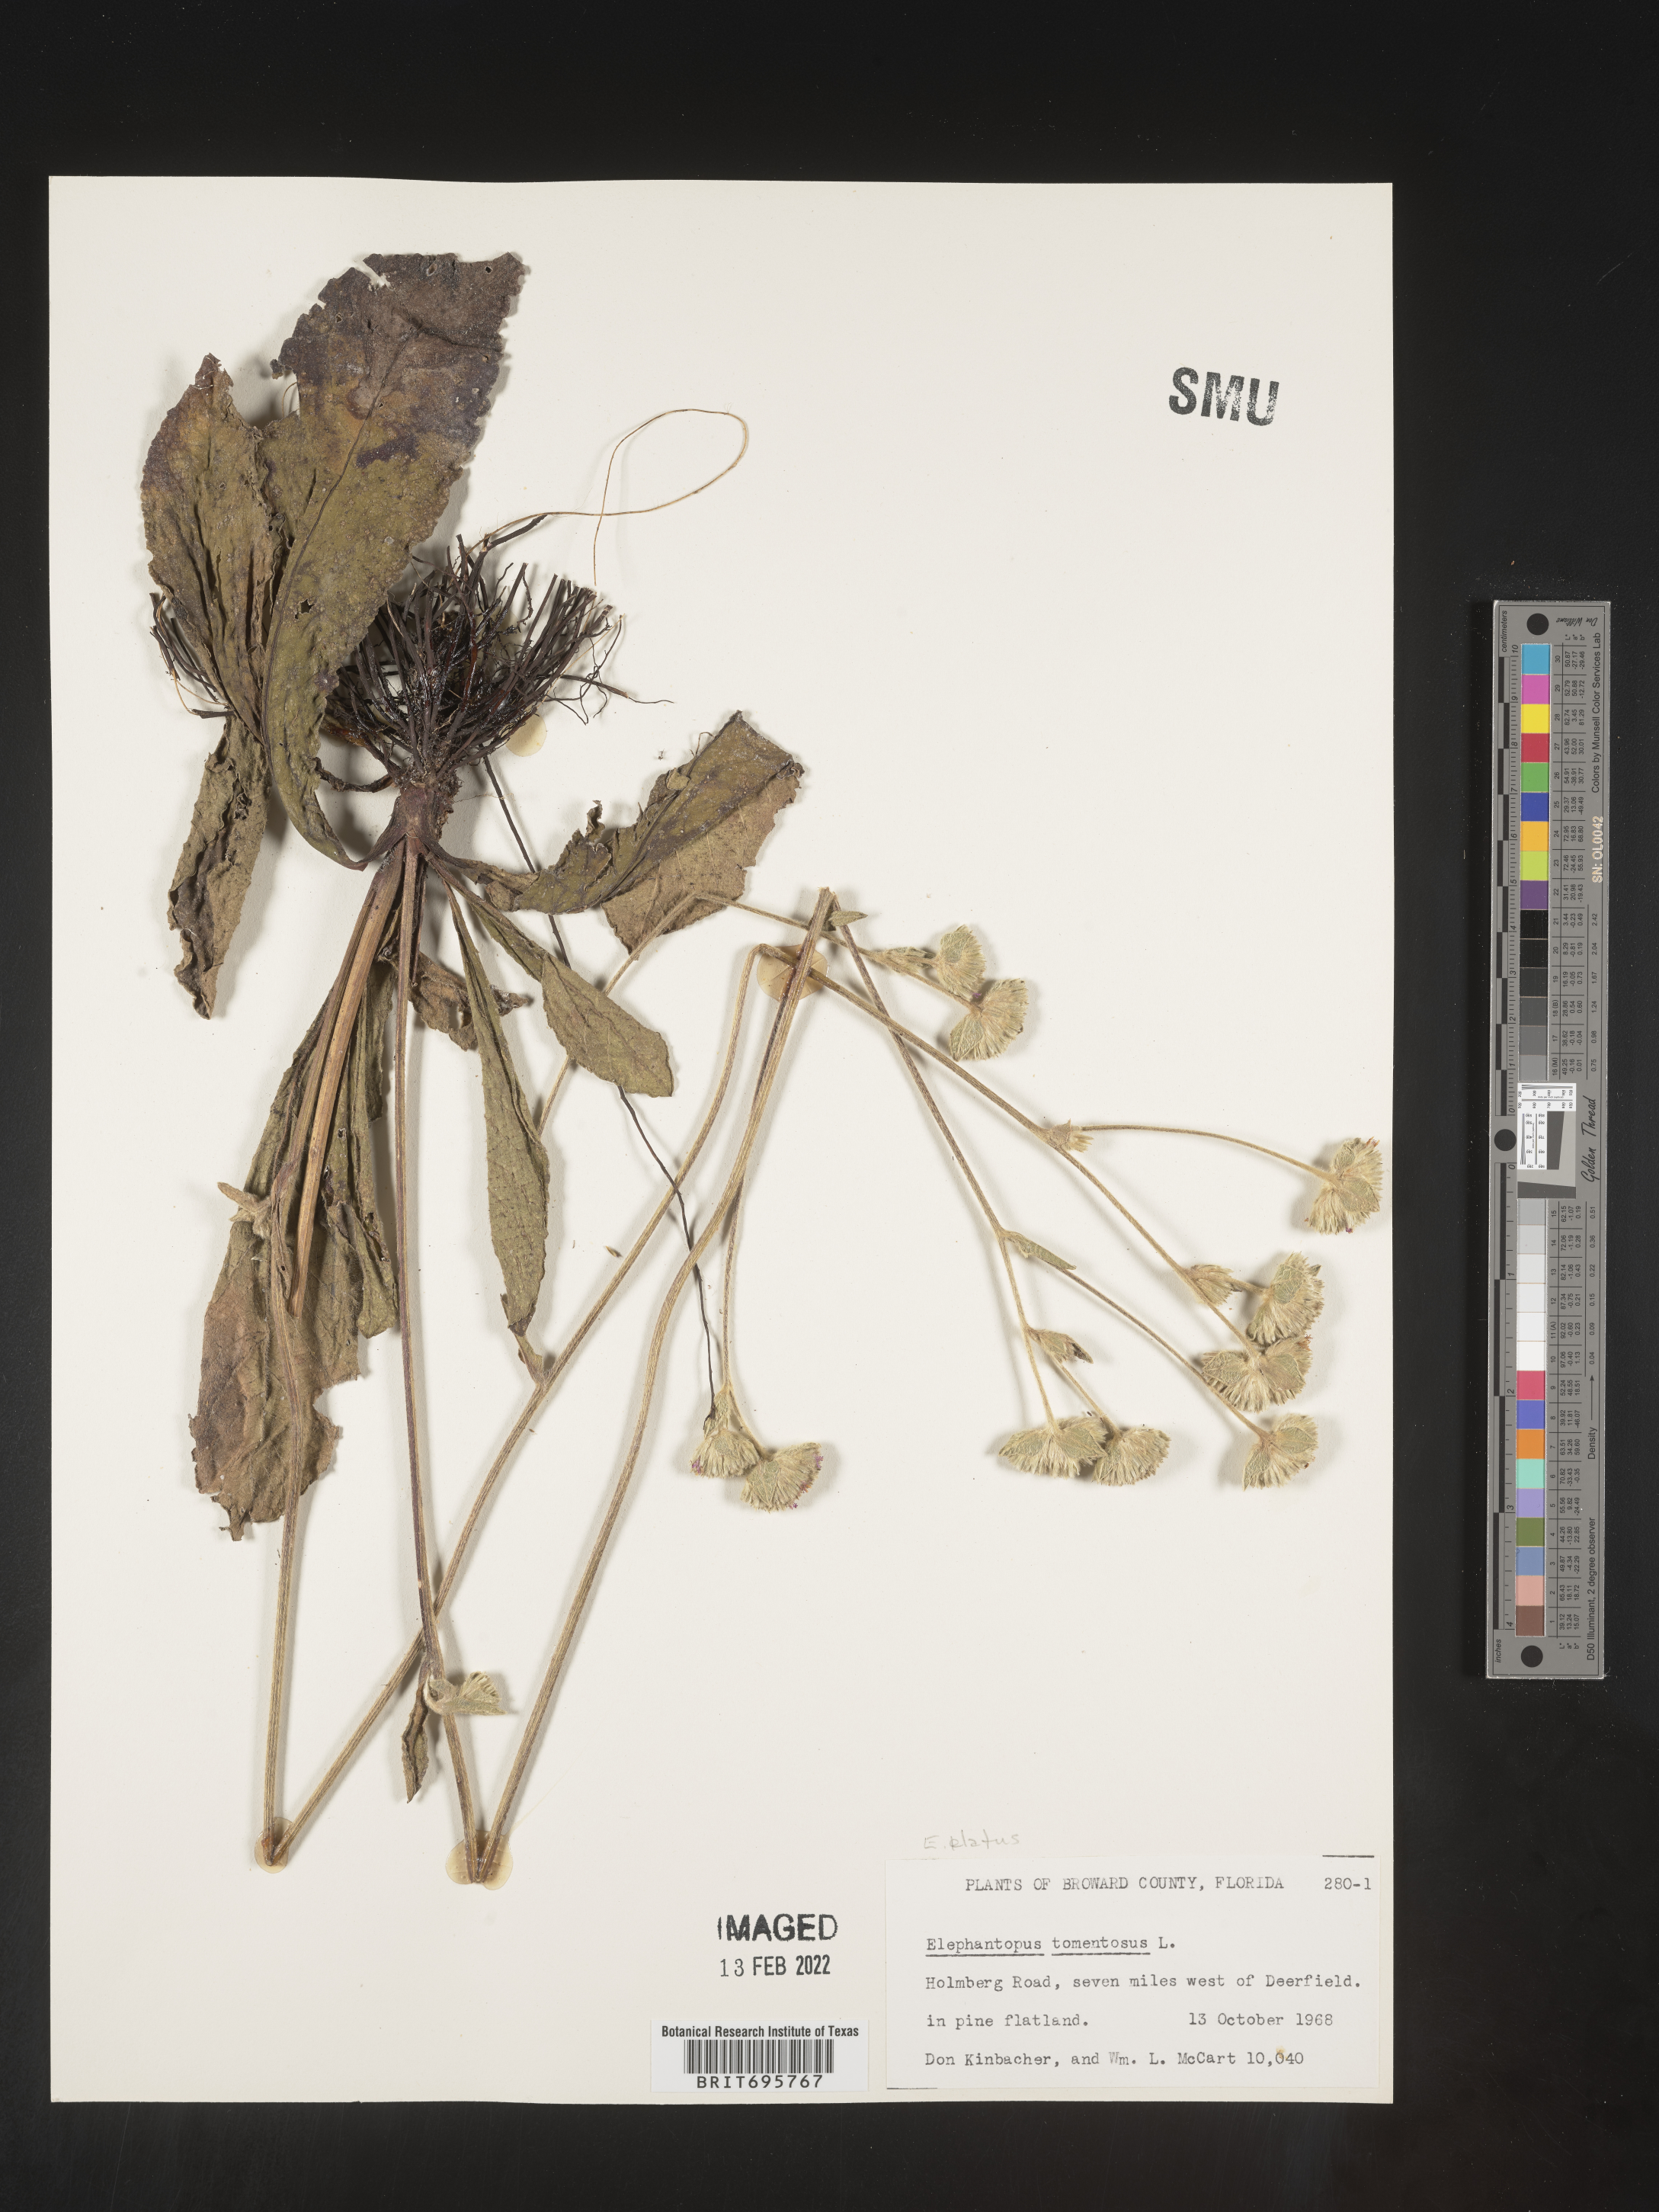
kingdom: Plantae
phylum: Tracheophyta
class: Magnoliopsida
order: Asterales
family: Asteraceae
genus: Elephantopus
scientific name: Elephantopus elatus
